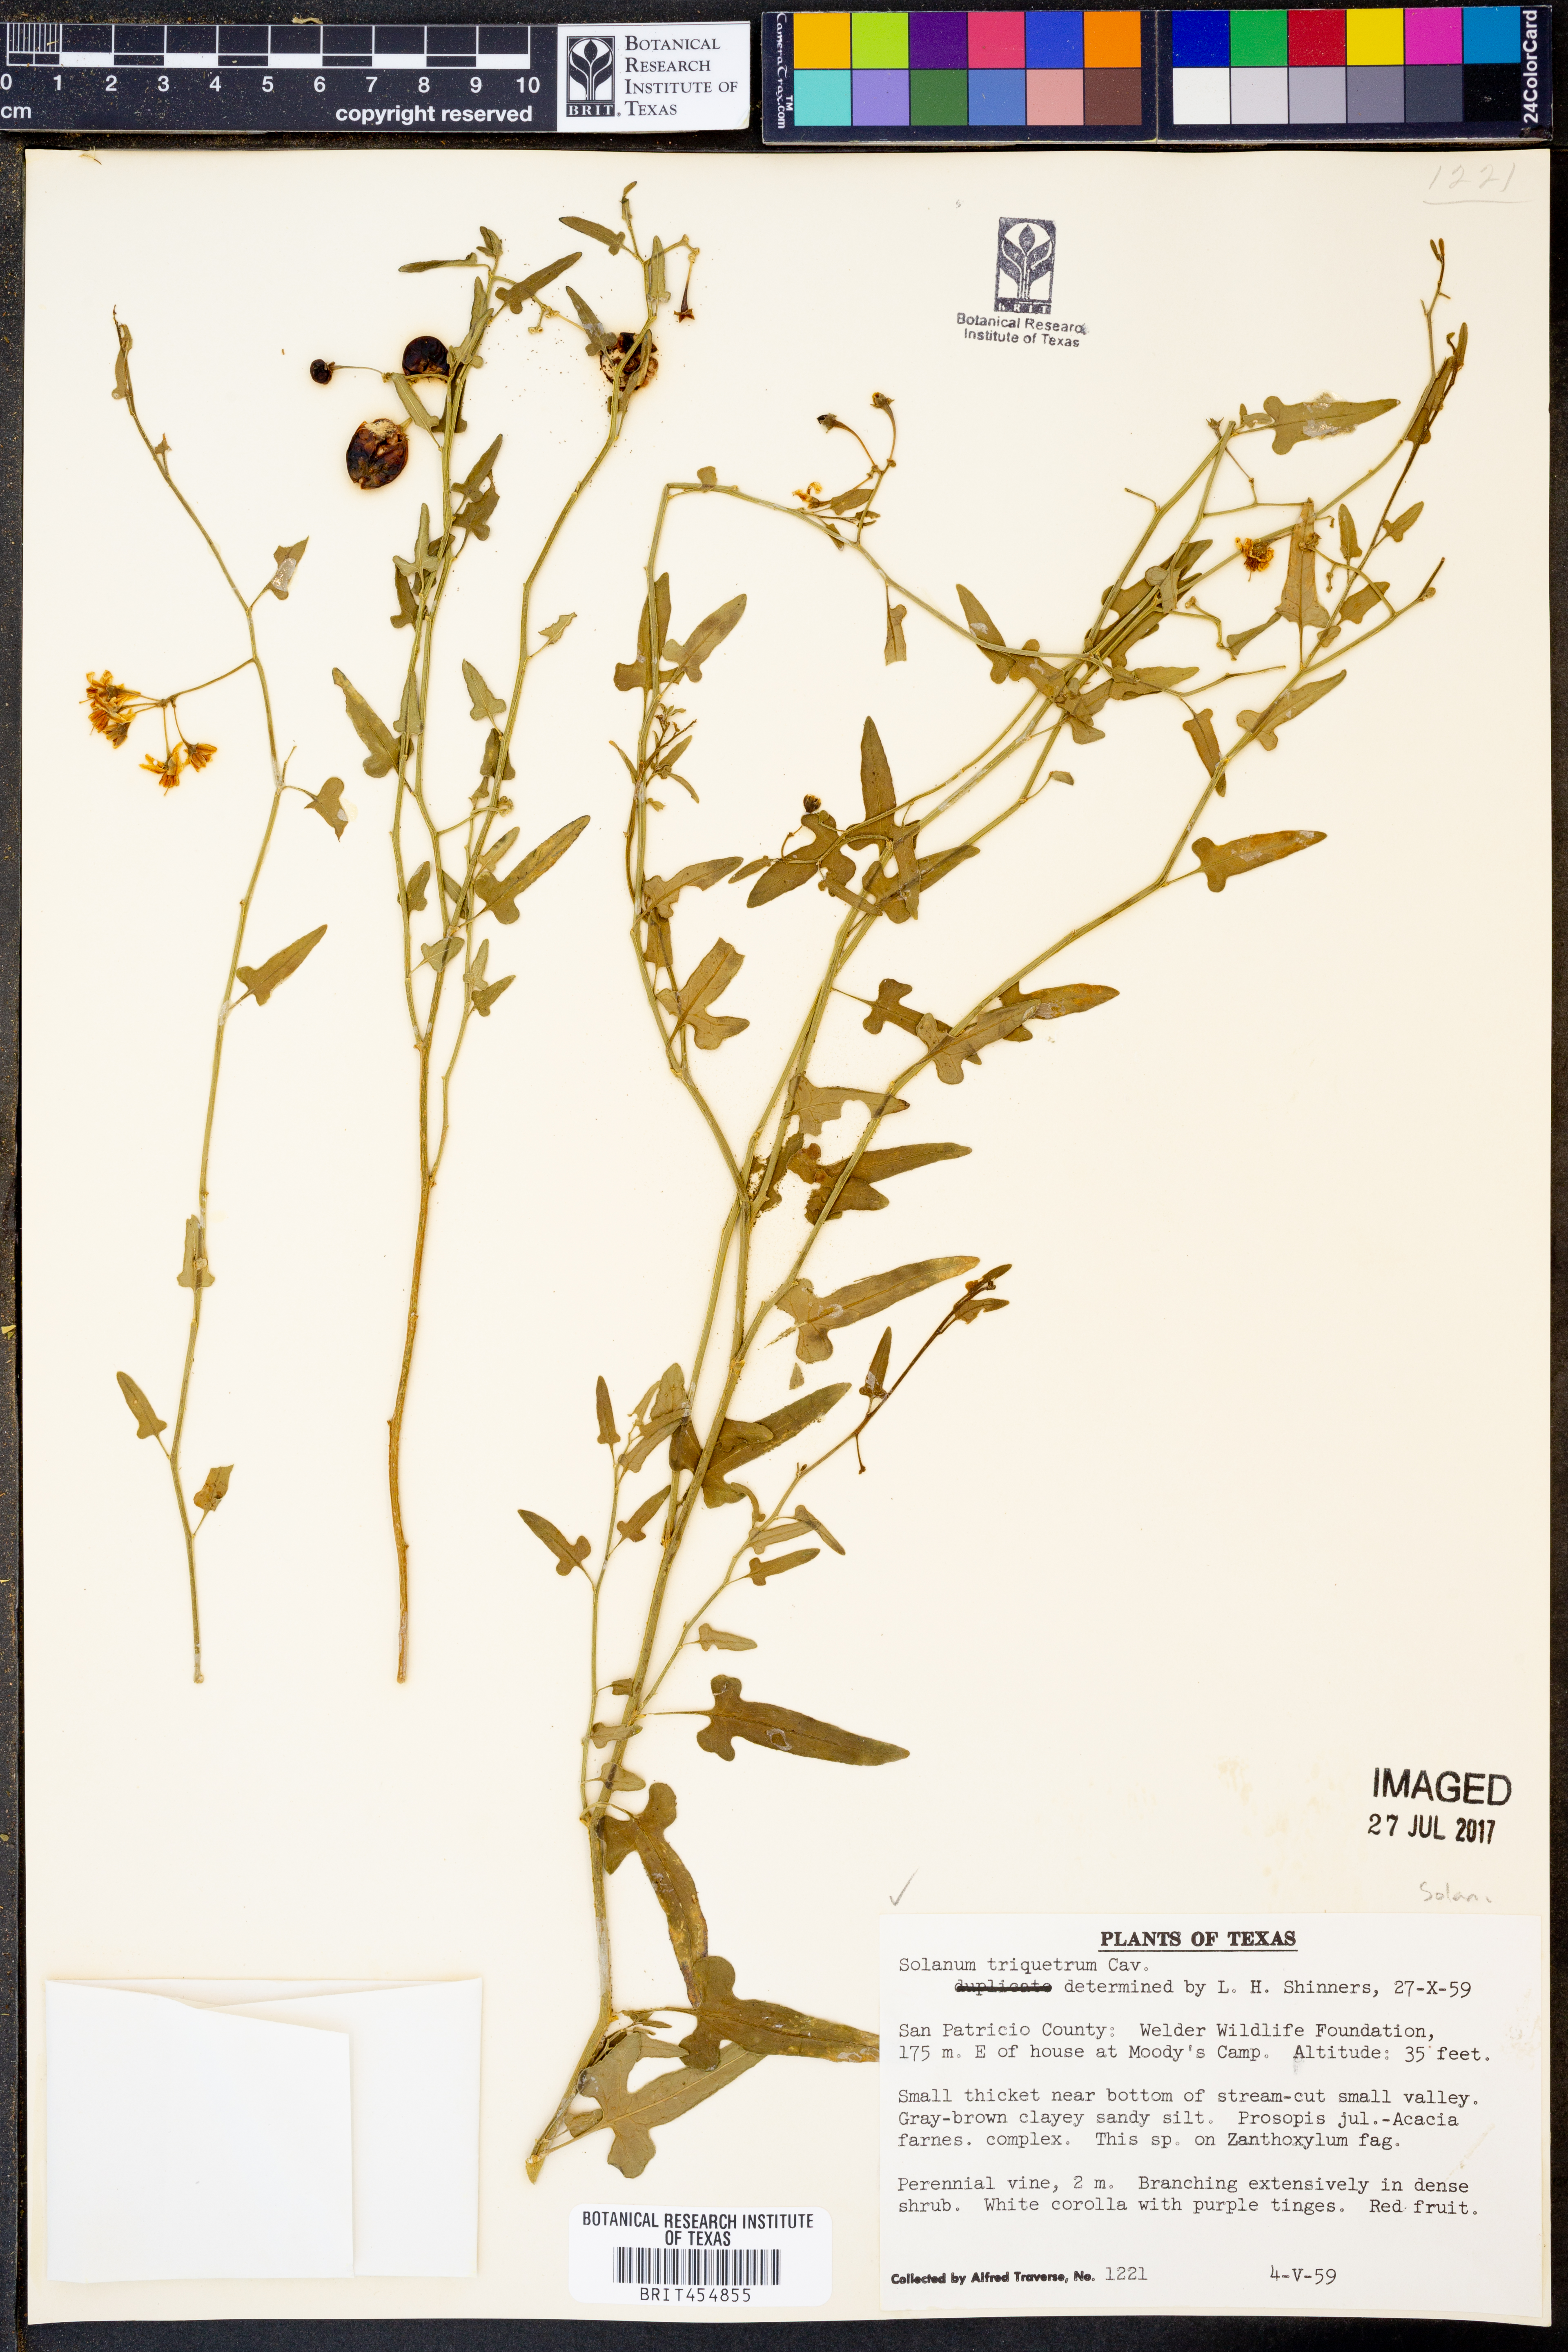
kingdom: Plantae
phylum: Tracheophyta
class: Magnoliopsida
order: Solanales
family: Solanaceae
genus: Solanum
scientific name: Solanum triquetrum
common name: Texas nightshade
